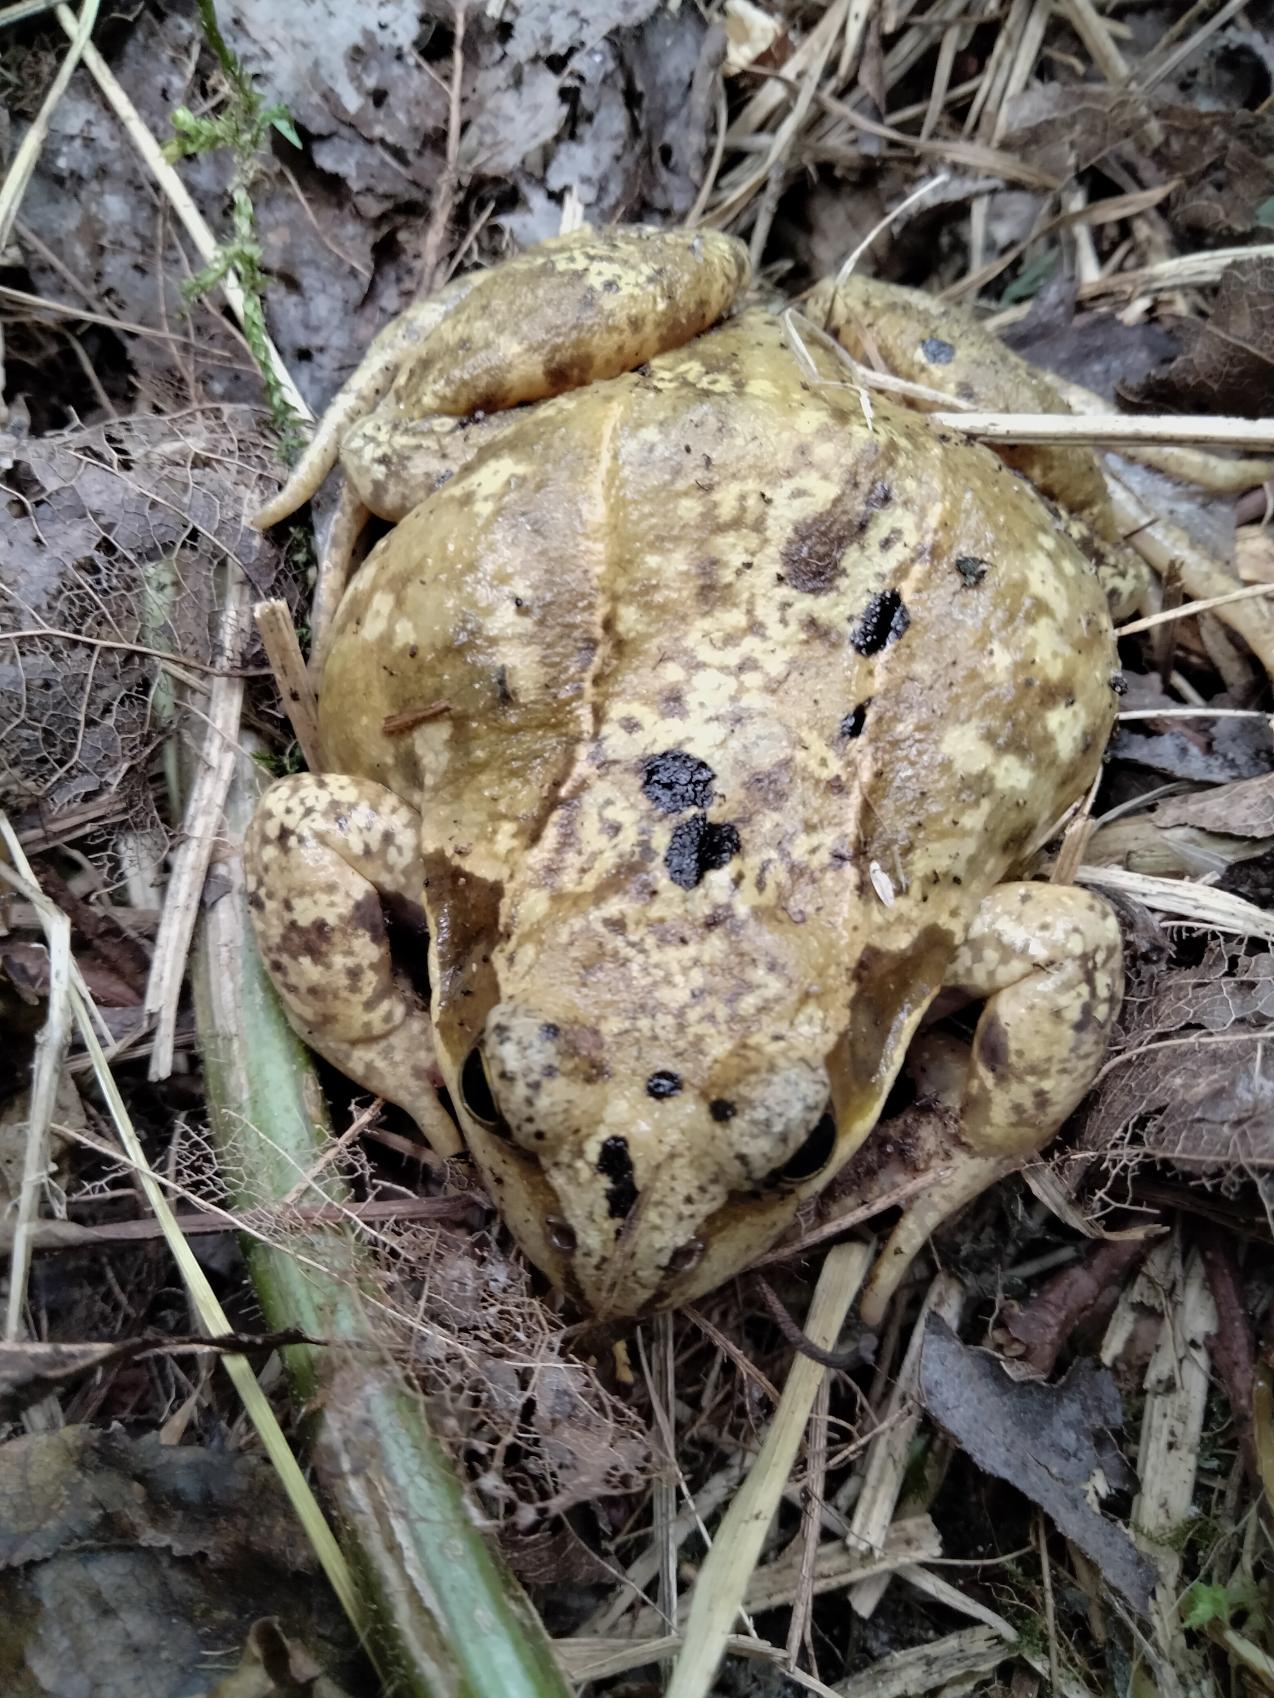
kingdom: Animalia
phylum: Chordata
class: Amphibia
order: Anura
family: Ranidae
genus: Rana
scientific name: Rana temporaria
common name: Butsnudet frø
